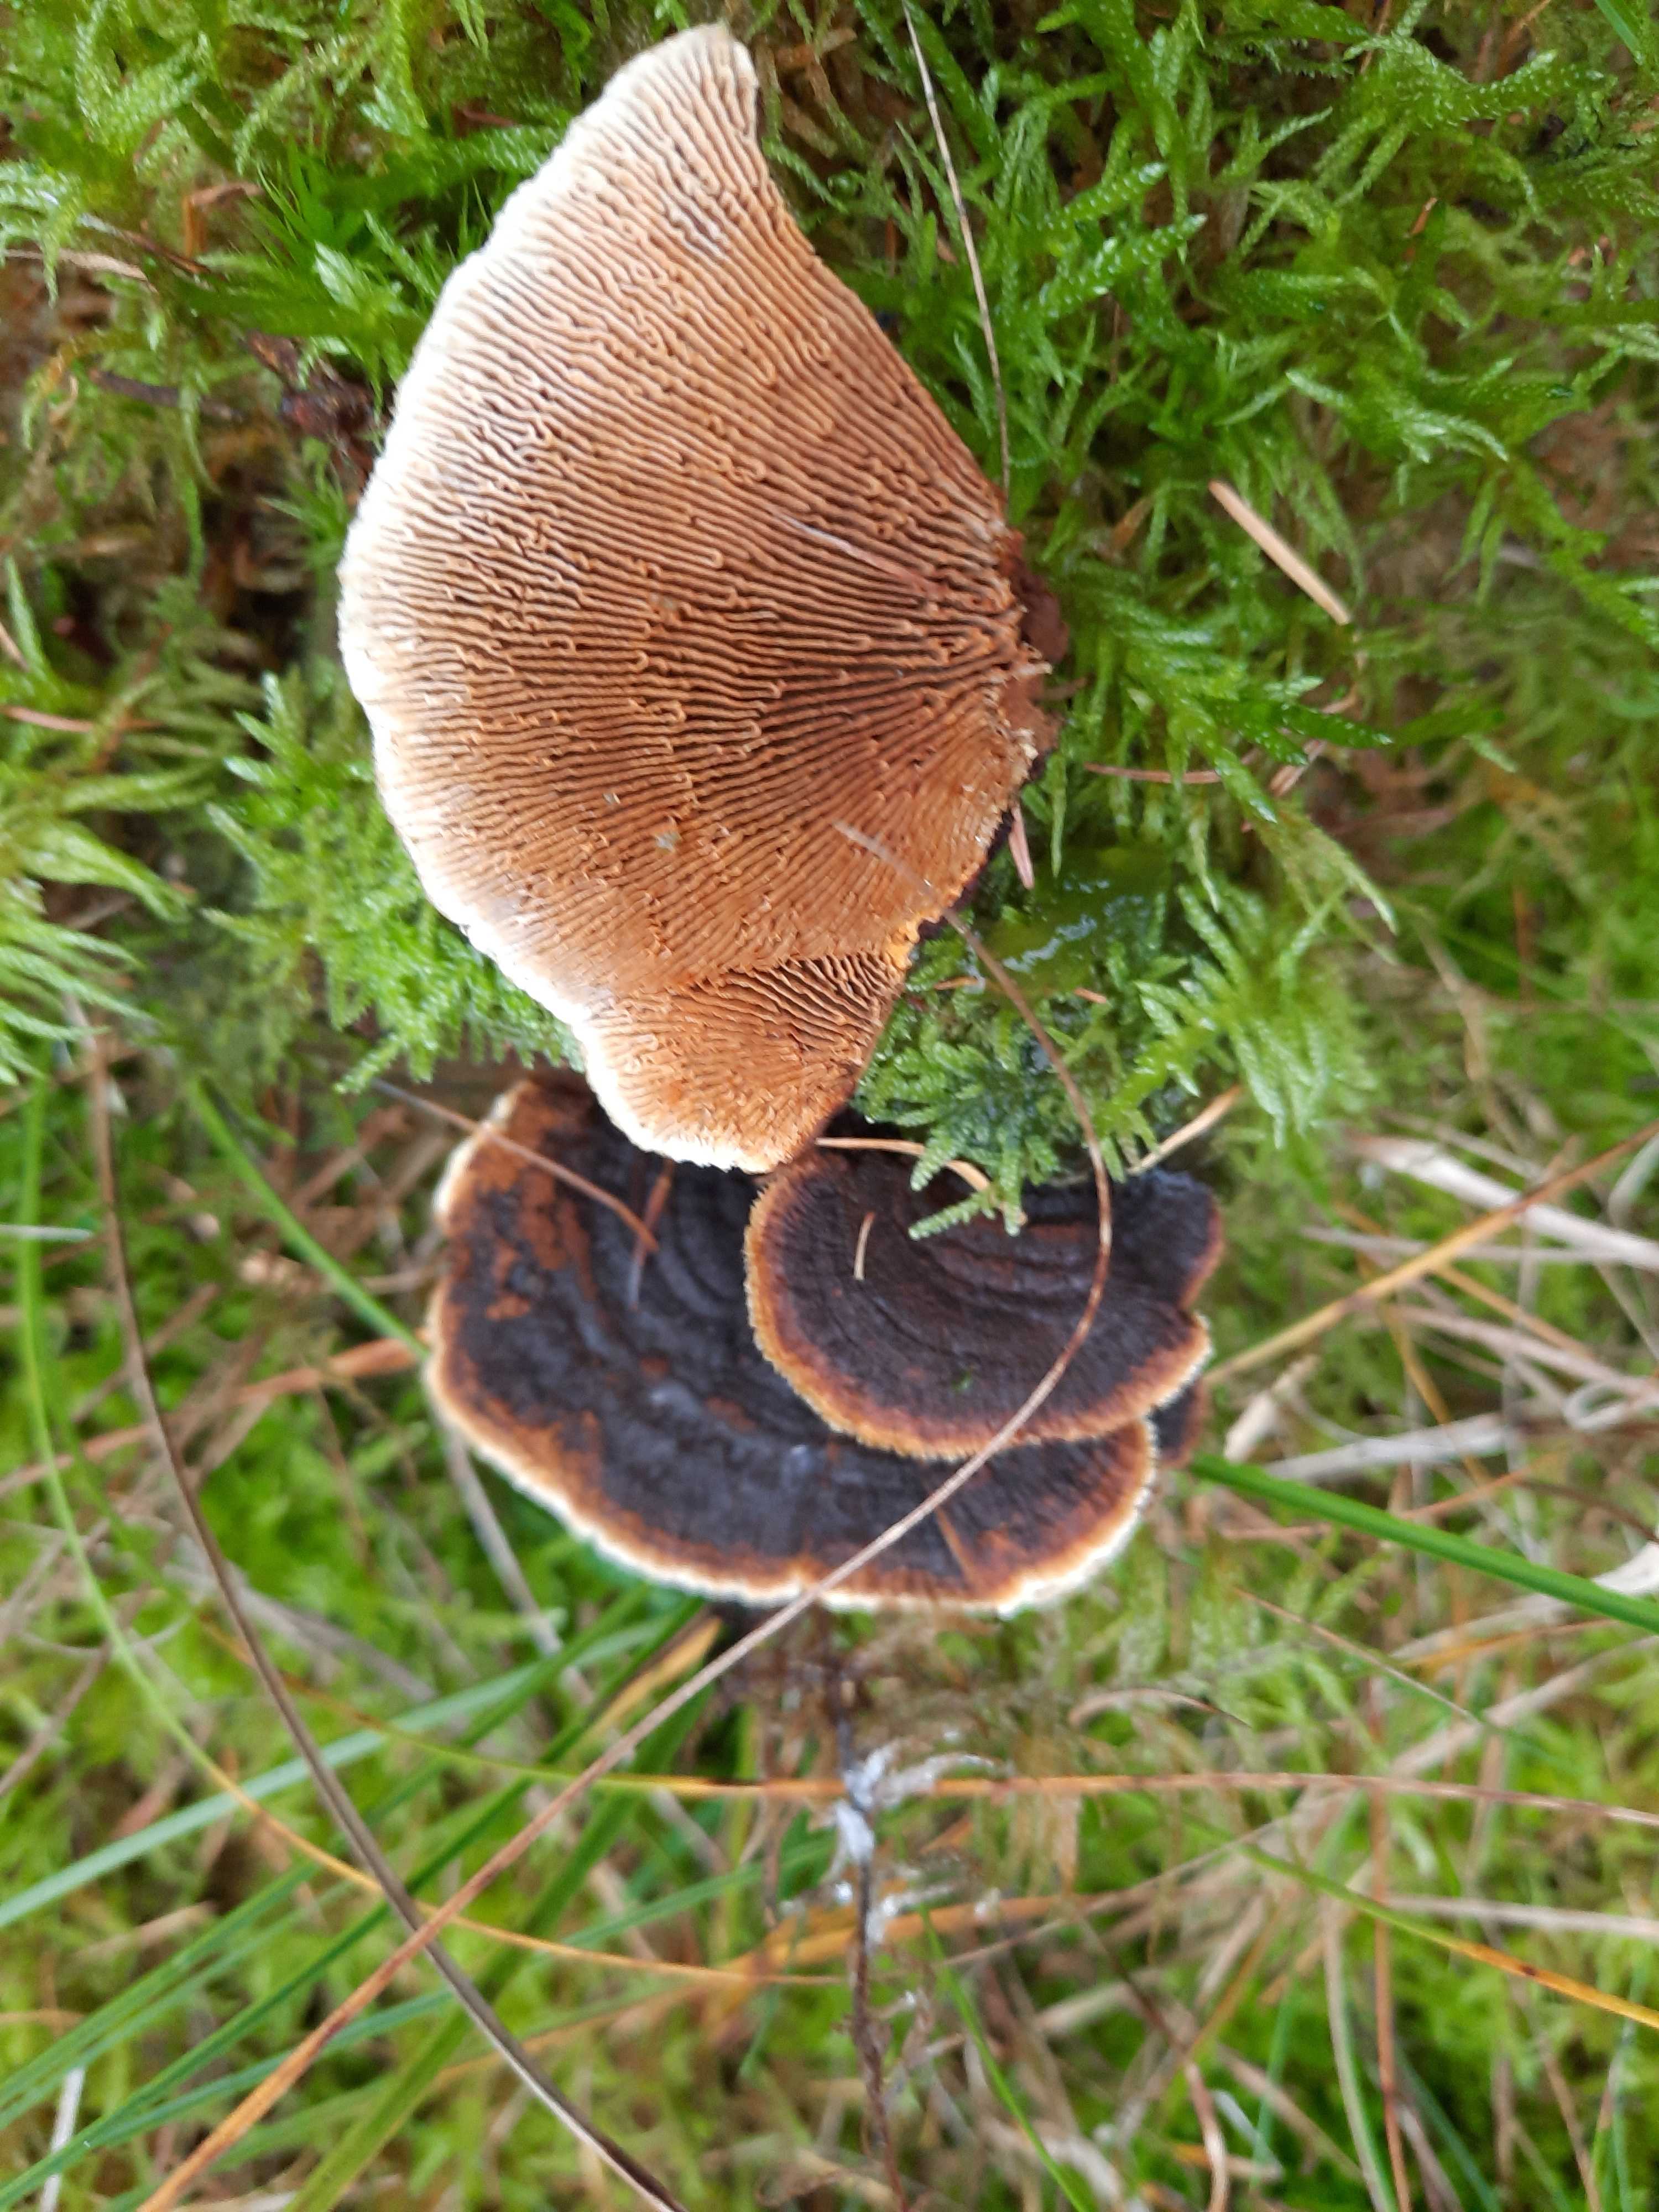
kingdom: Fungi
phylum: Basidiomycota
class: Agaricomycetes
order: Gloeophyllales
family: Gloeophyllaceae
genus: Gloeophyllum
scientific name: Gloeophyllum sepiarium
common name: fyrre-korkhat
